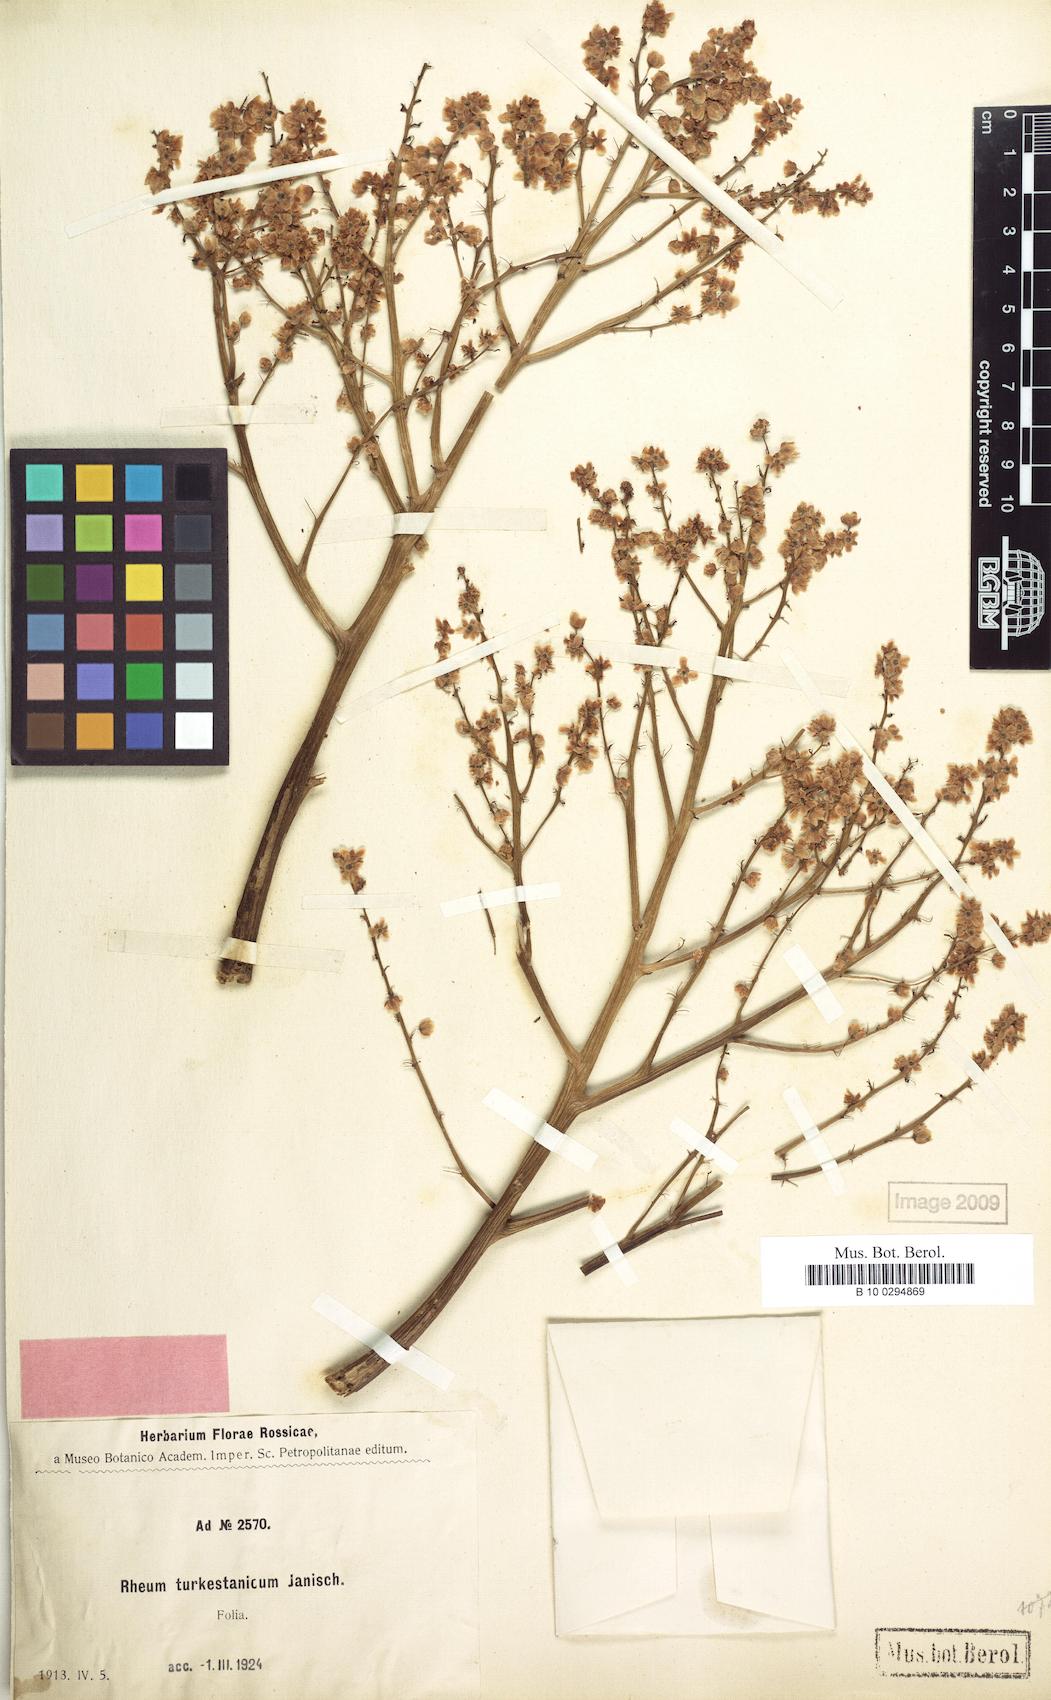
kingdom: Plantae
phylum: Tracheophyta
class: Magnoliopsida
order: Caryophyllales
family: Polygonaceae
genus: Rheum
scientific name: Rheum turkestanicum
